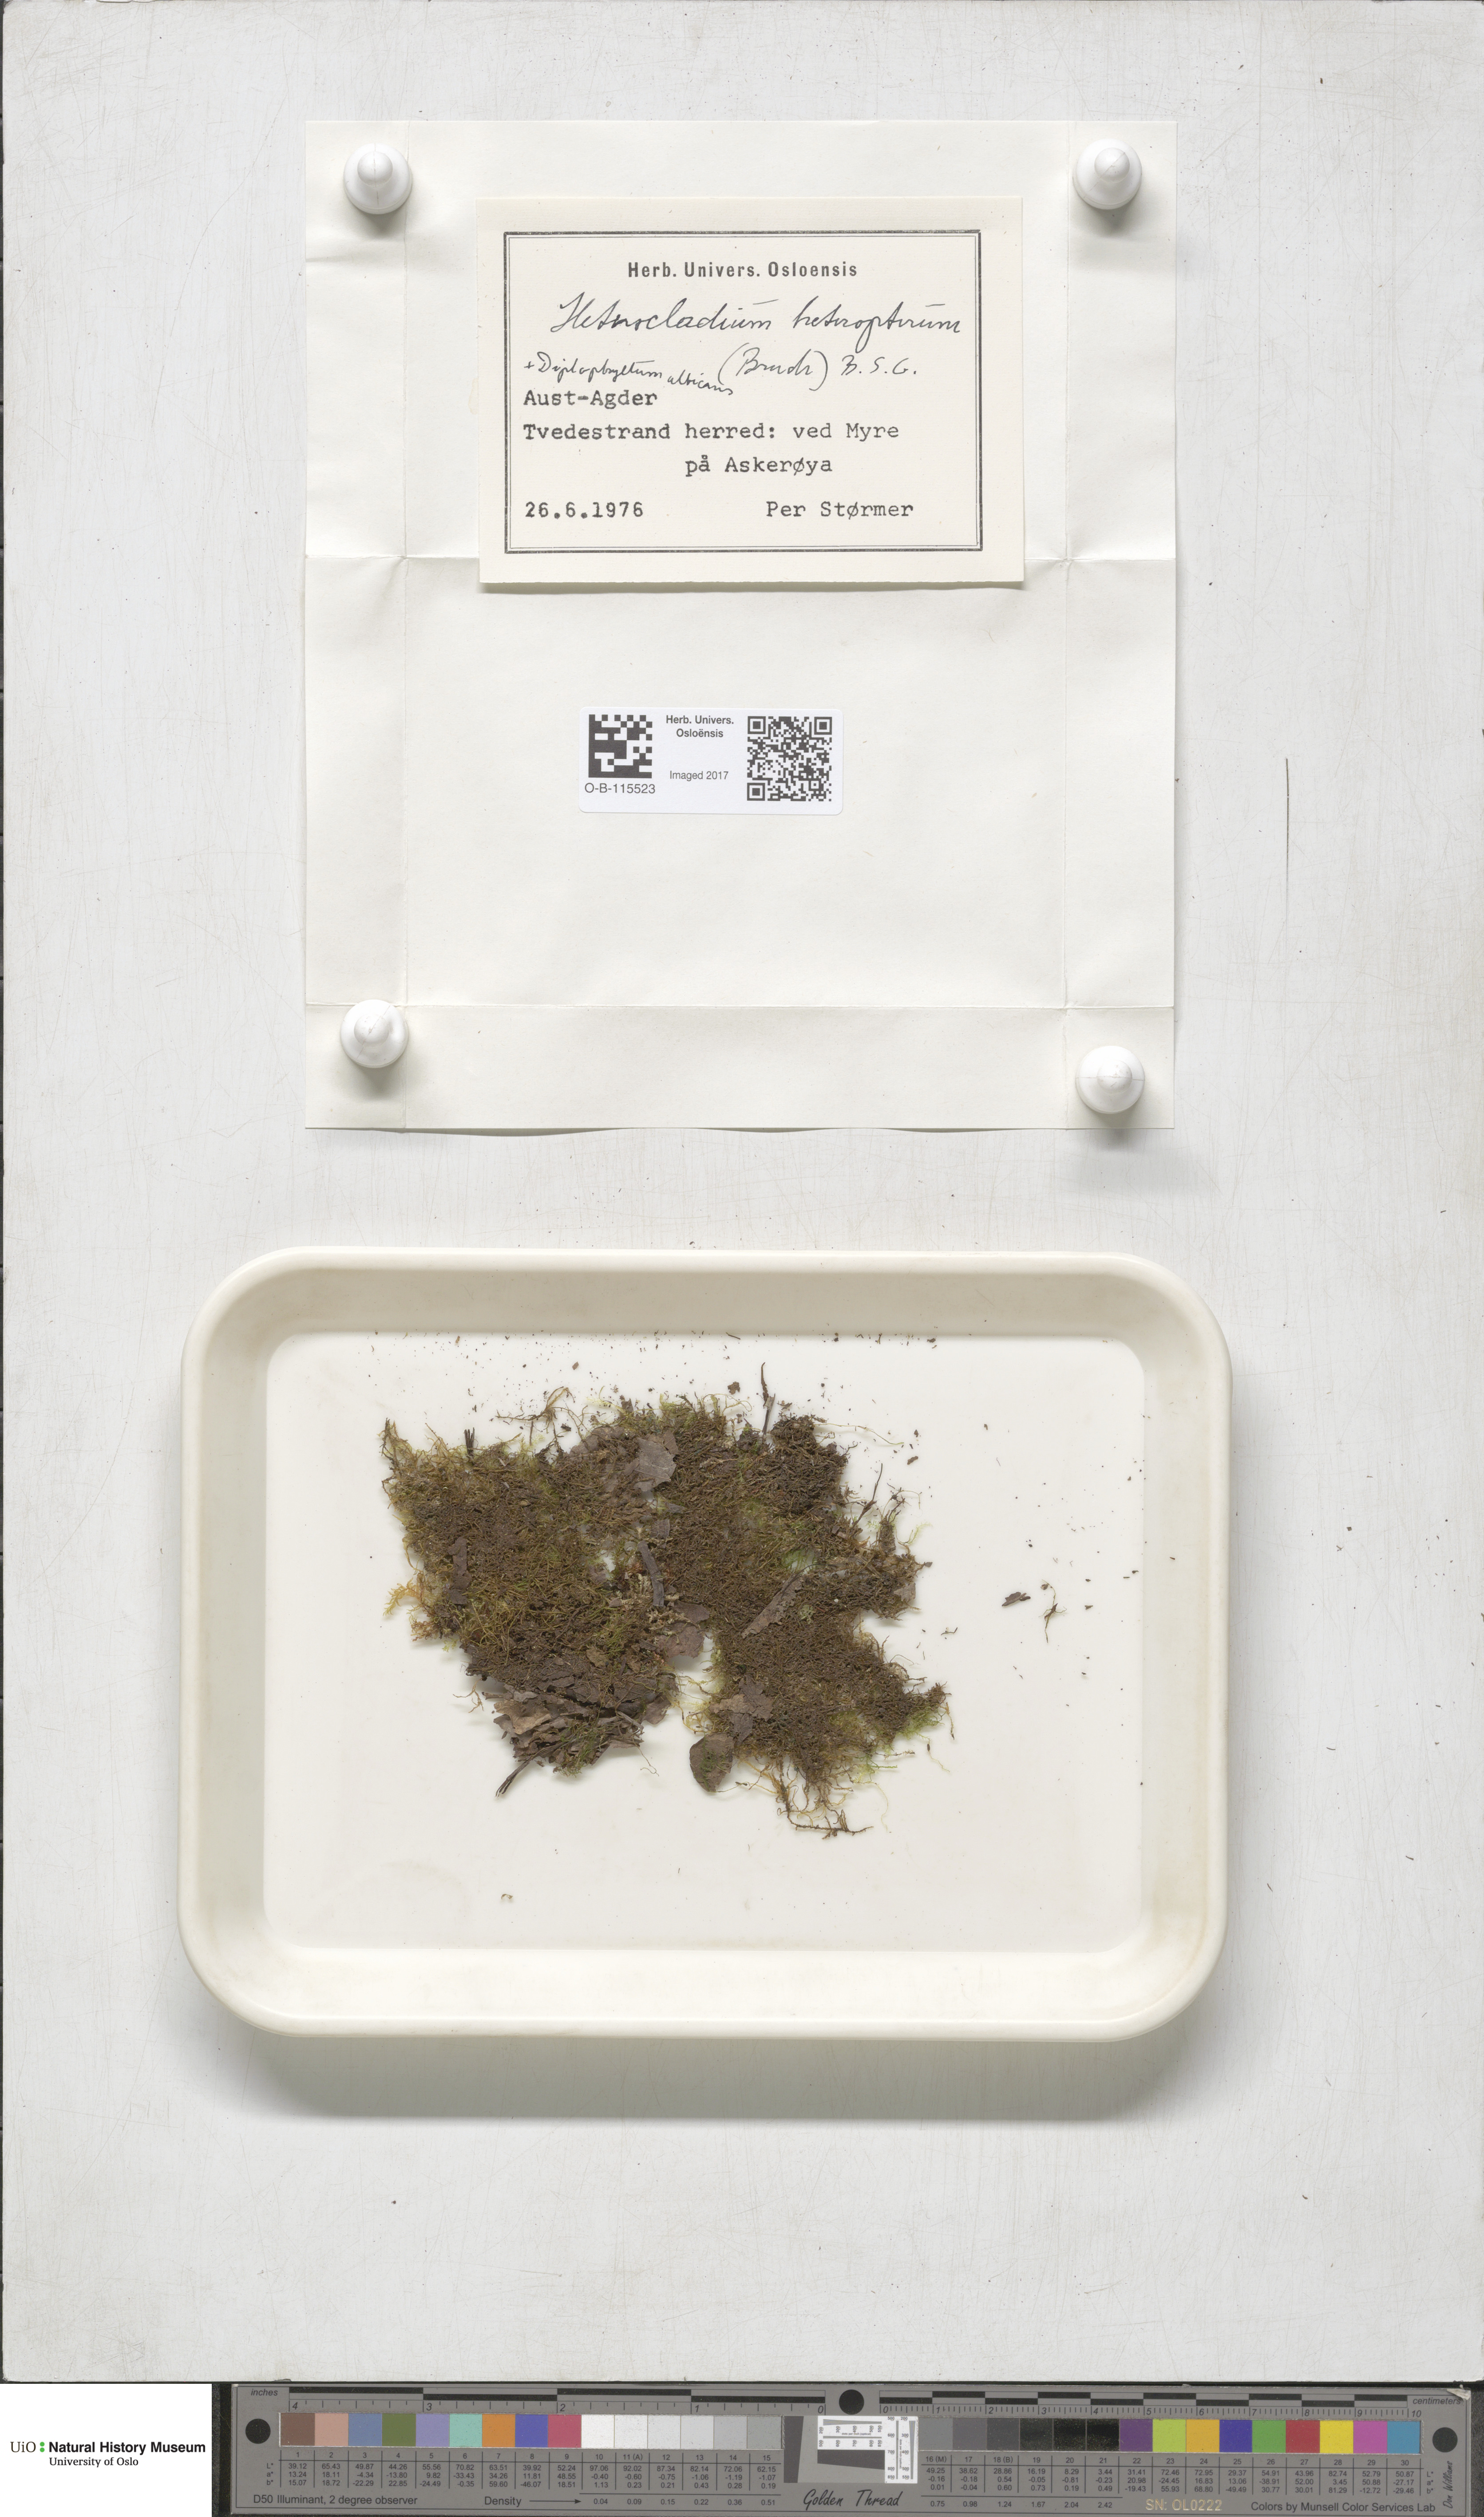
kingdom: Plantae
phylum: Bryophyta
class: Bryopsida
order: Hypnales
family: Lembophyllaceae
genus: Heterocladium
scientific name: Heterocladium heteropterum
